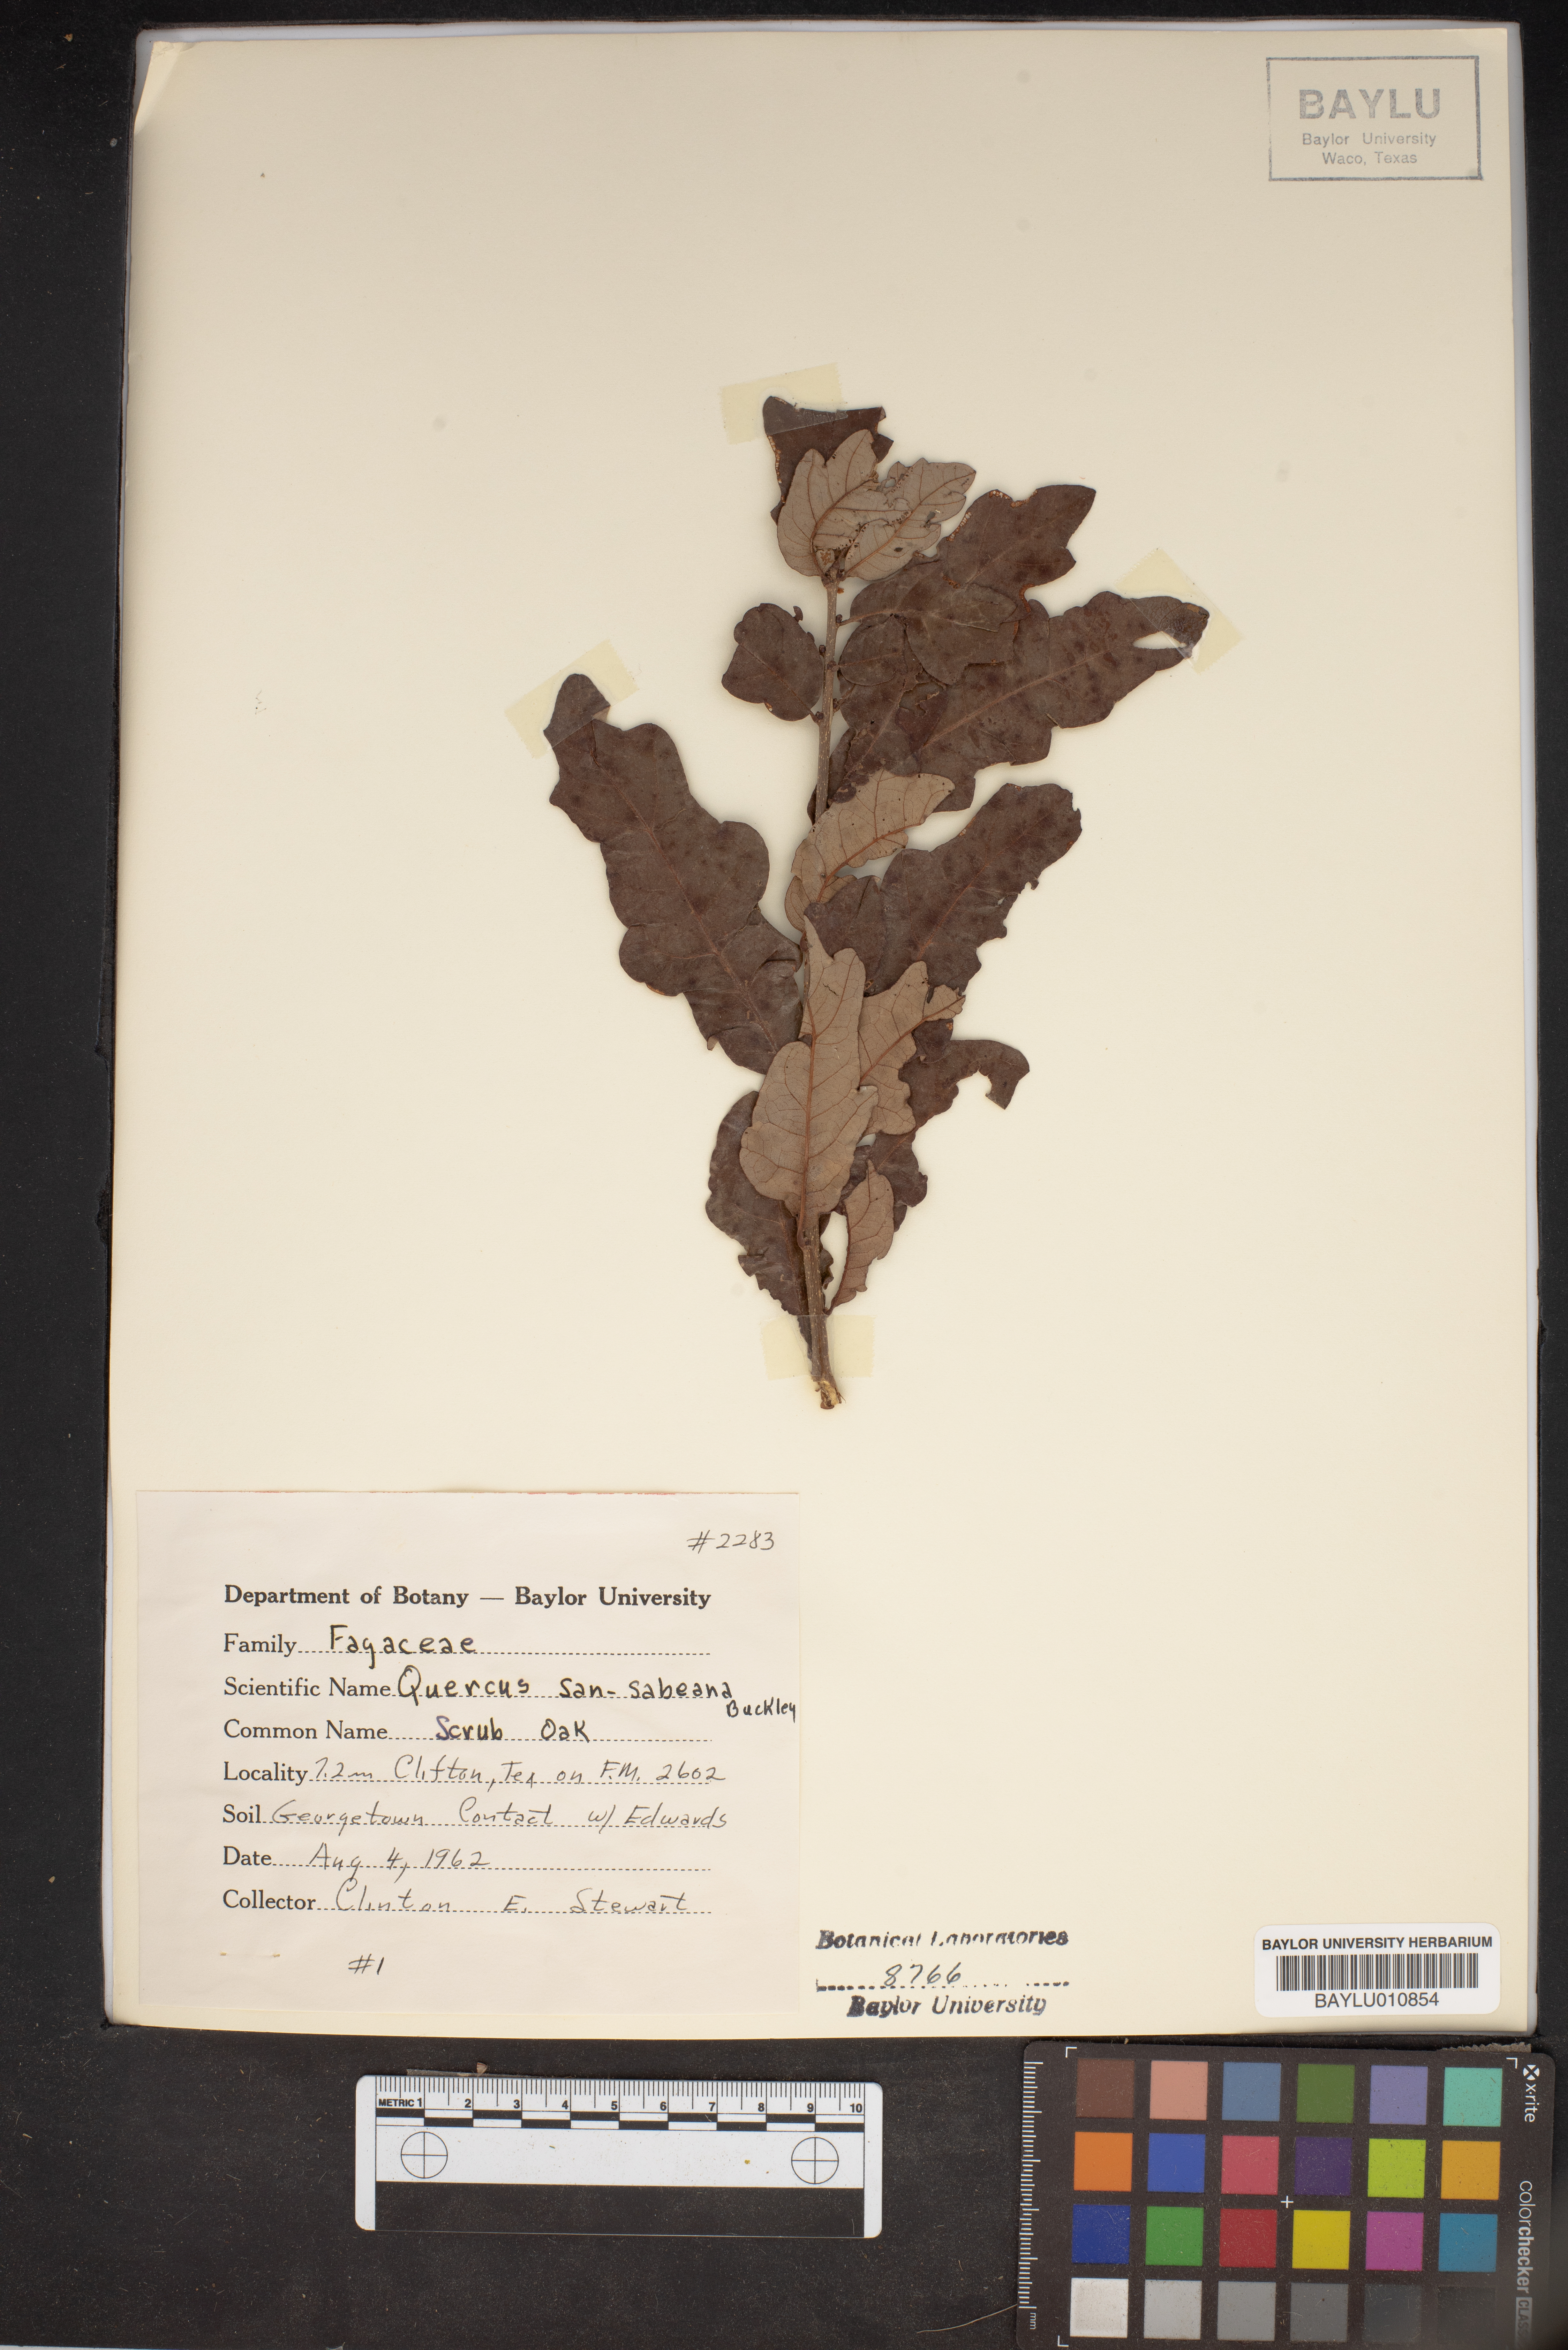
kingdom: Plantae
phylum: Tracheophyta
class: Magnoliopsida
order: Fagales
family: Fagaceae
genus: Quercus
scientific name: Quercus sinuata
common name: Durand oak
